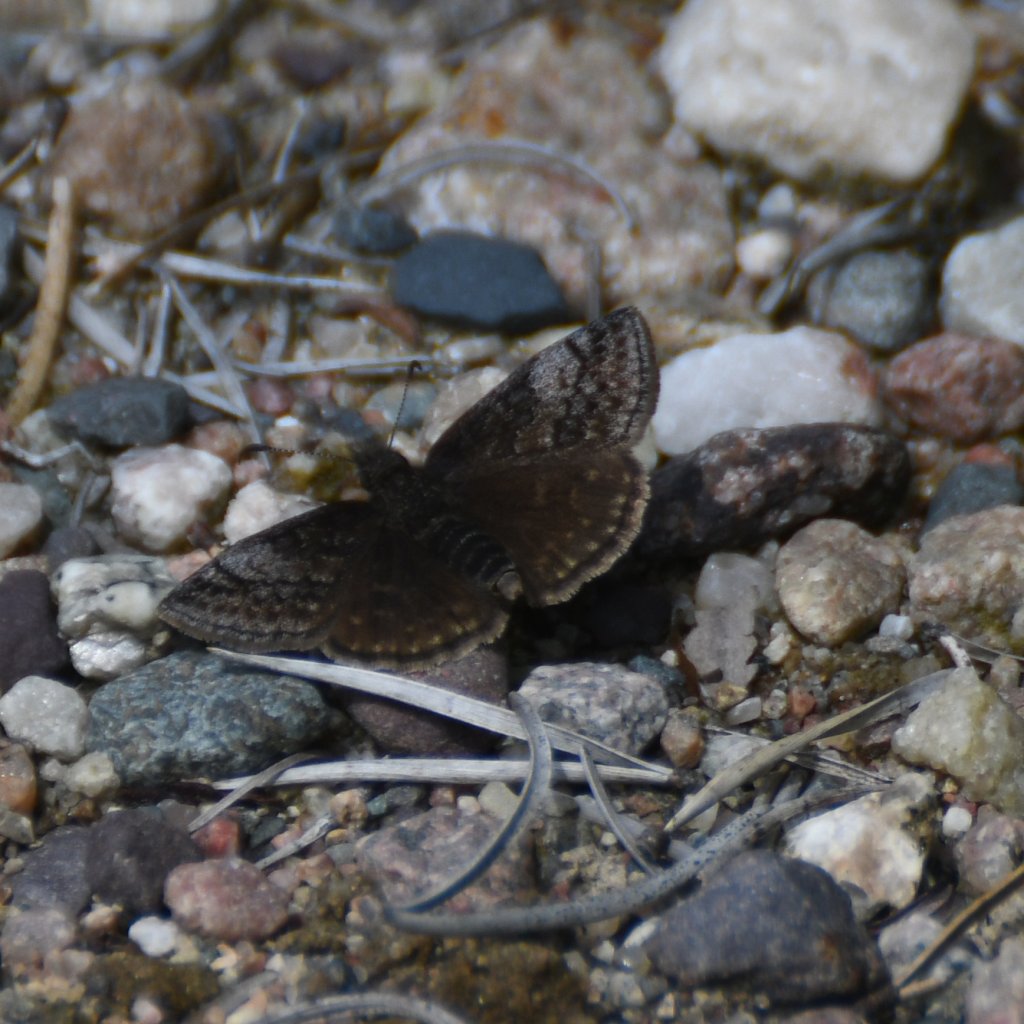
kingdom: Animalia
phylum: Arthropoda
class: Insecta
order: Lepidoptera
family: Hesperiidae
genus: Erynnis
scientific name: Erynnis icelus
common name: Dreamy Duskywing
